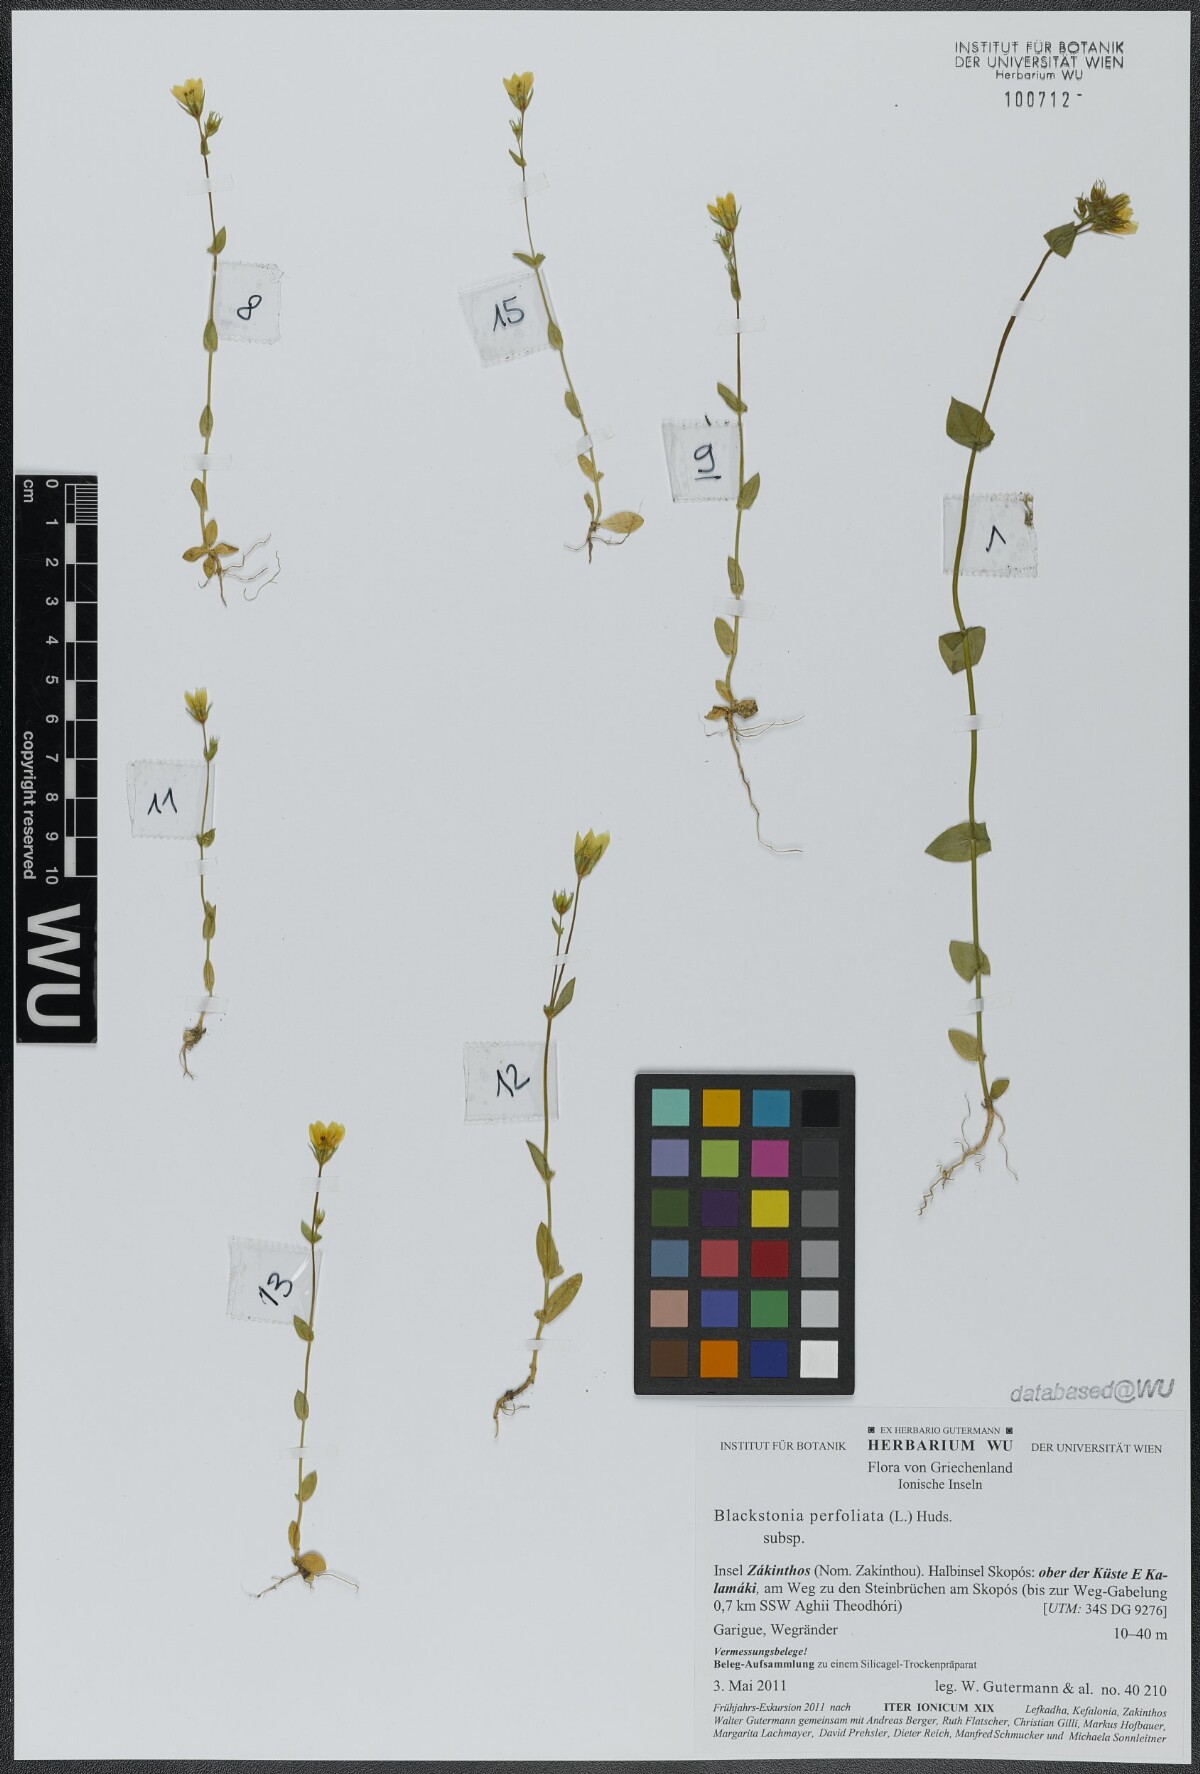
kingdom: Plantae
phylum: Tracheophyta
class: Magnoliopsida
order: Gentianales
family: Gentianaceae
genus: Blackstonia
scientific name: Blackstonia perfoliata
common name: Yellow-wort
